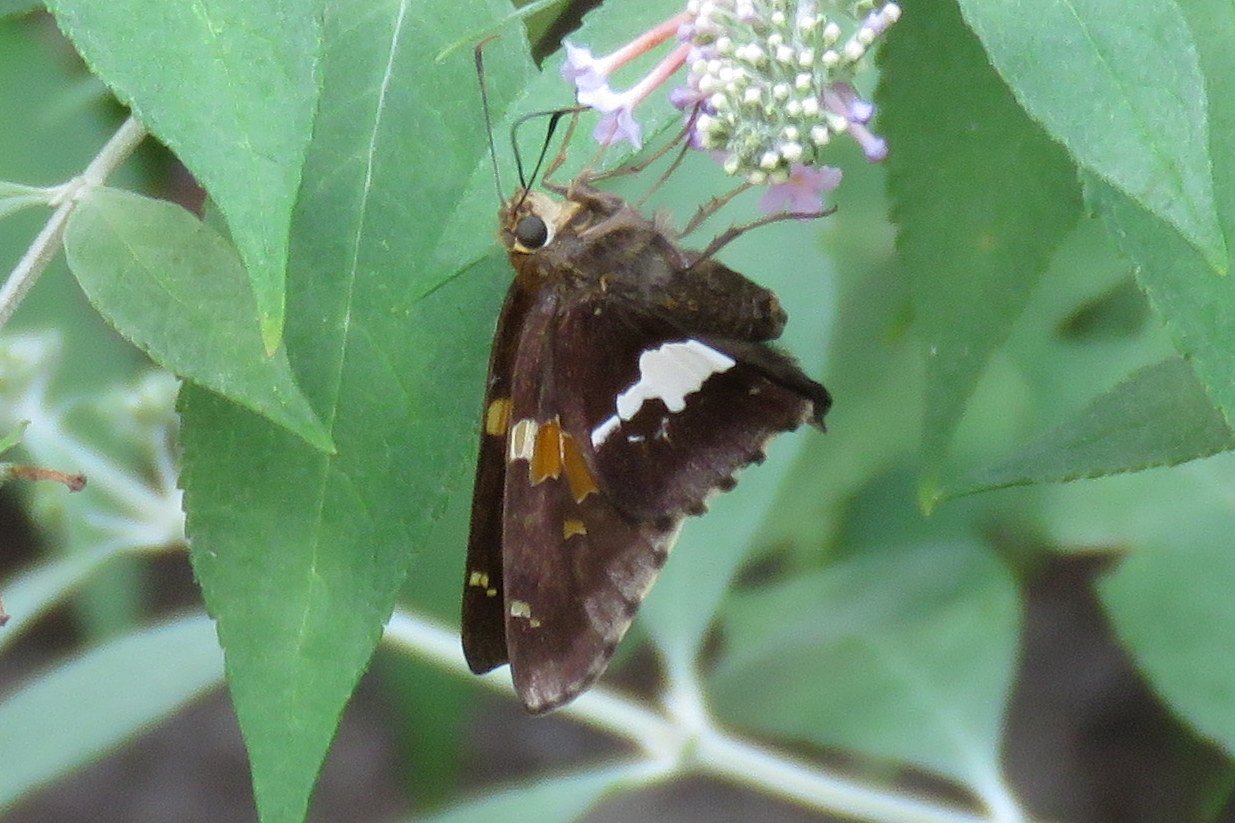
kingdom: Animalia
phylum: Arthropoda
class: Insecta
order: Lepidoptera
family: Hesperiidae
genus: Epargyreus
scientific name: Epargyreus clarus
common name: Silver-spotted Skipper
